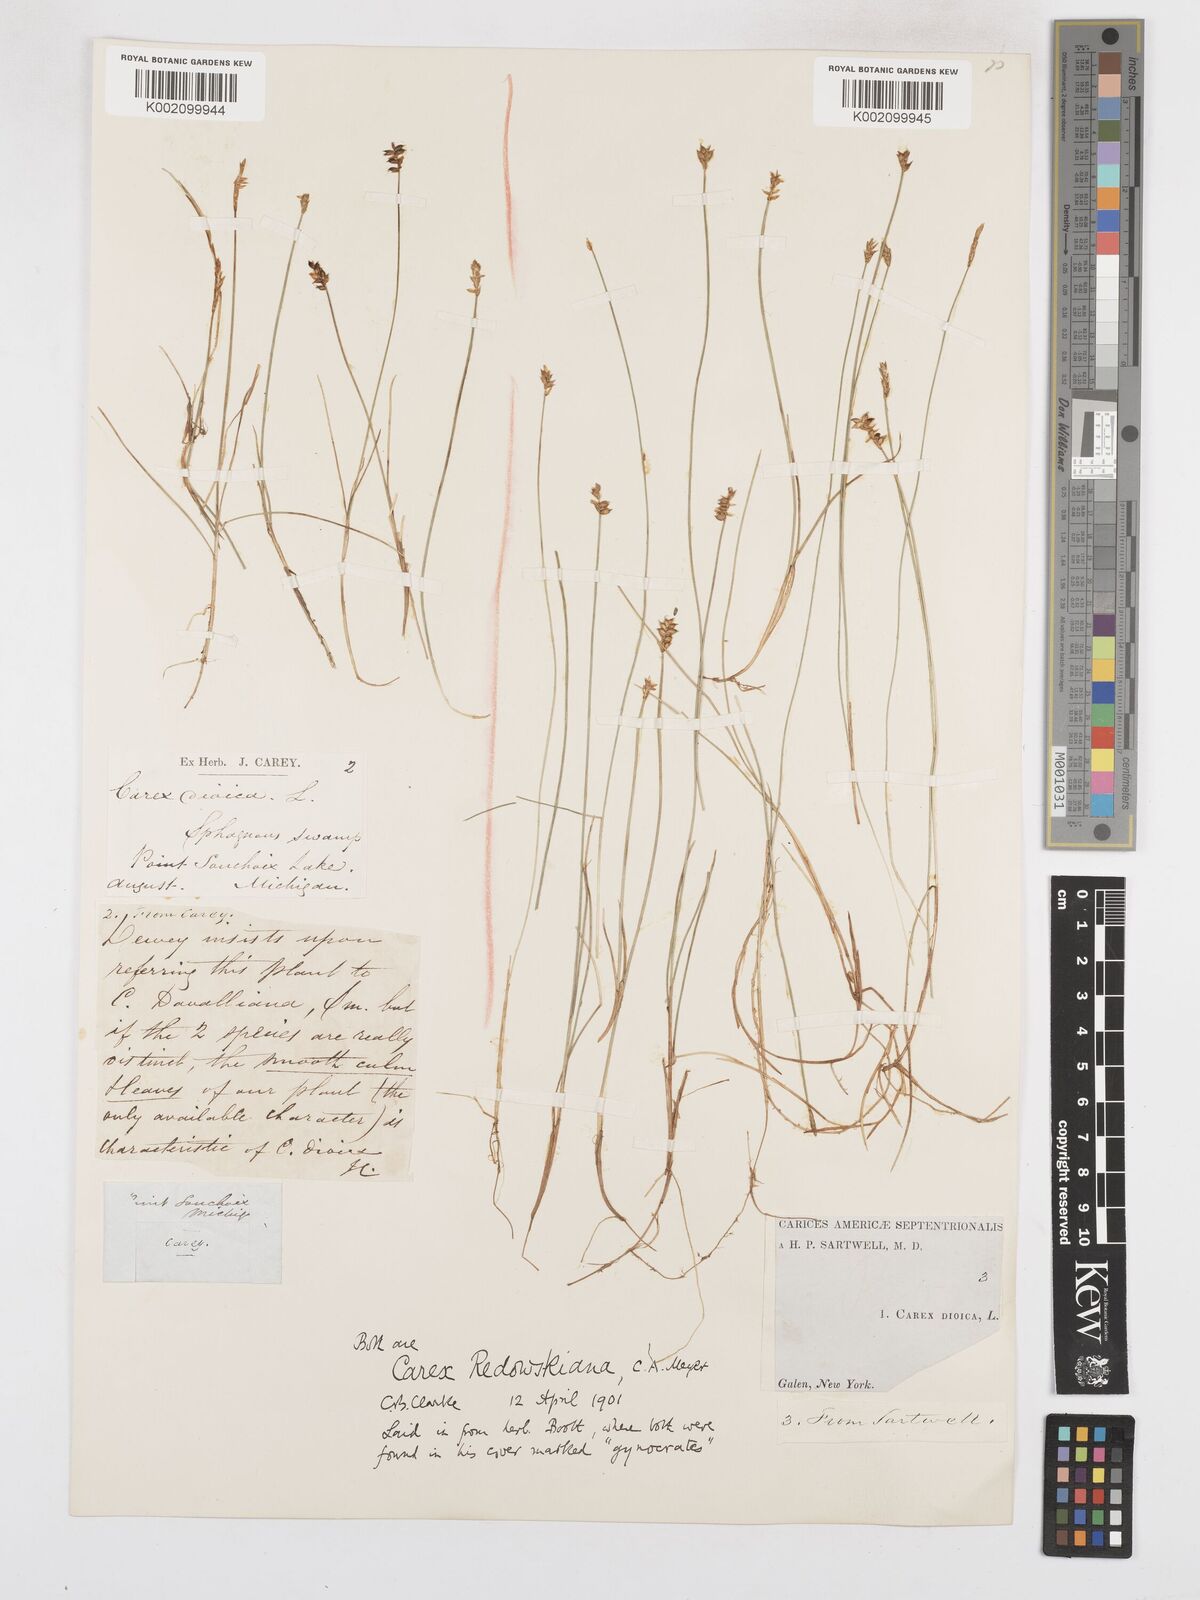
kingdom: Plantae
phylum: Tracheophyta
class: Liliopsida
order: Poales
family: Cyperaceae
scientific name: Cyperaceae
